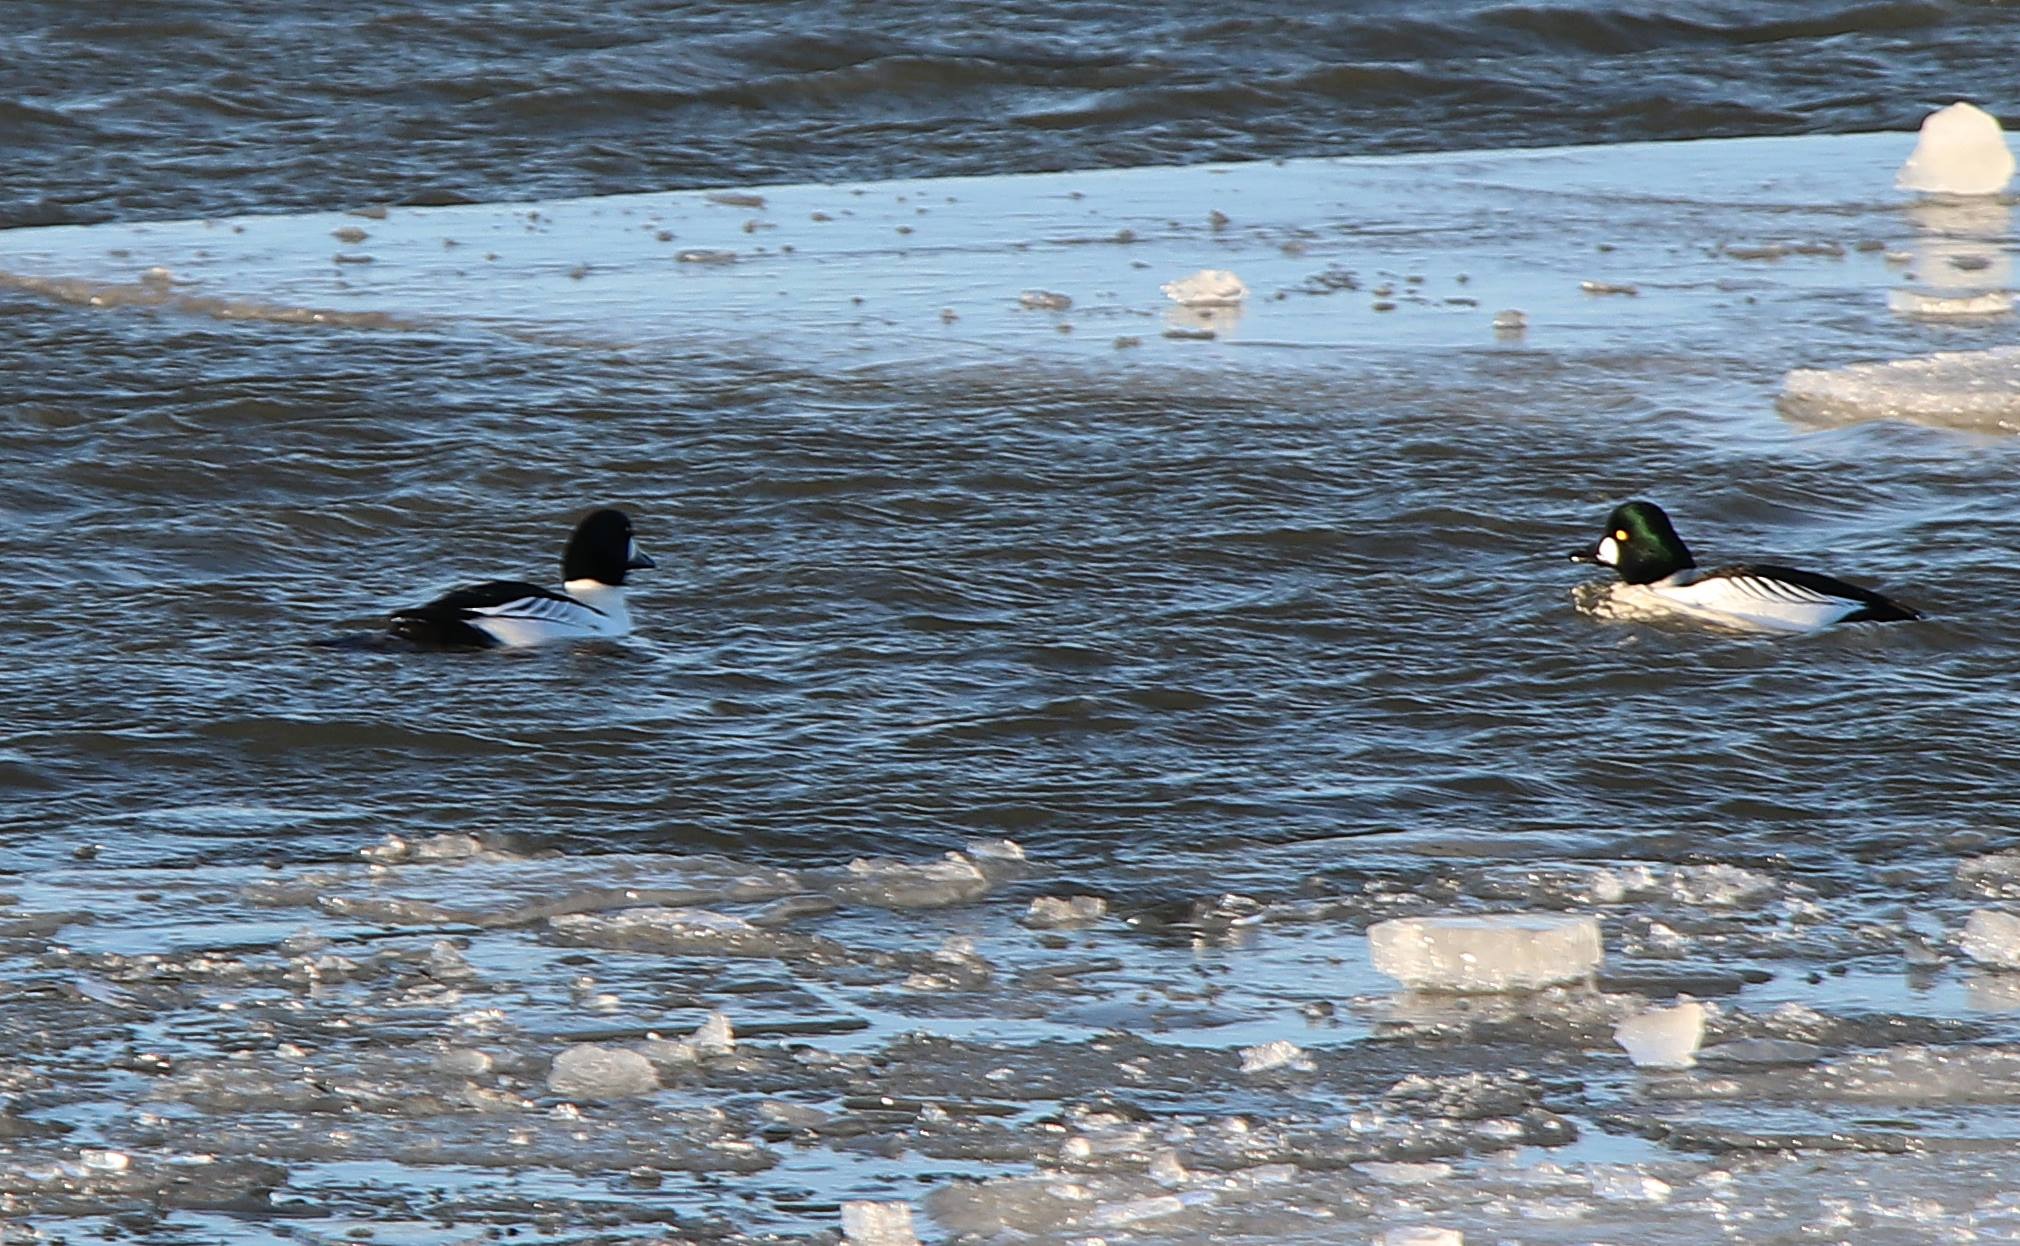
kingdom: Animalia
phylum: Chordata
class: Aves
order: Anseriformes
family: Anatidae
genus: Bucephala
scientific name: Bucephala clangula
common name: Hvinand
